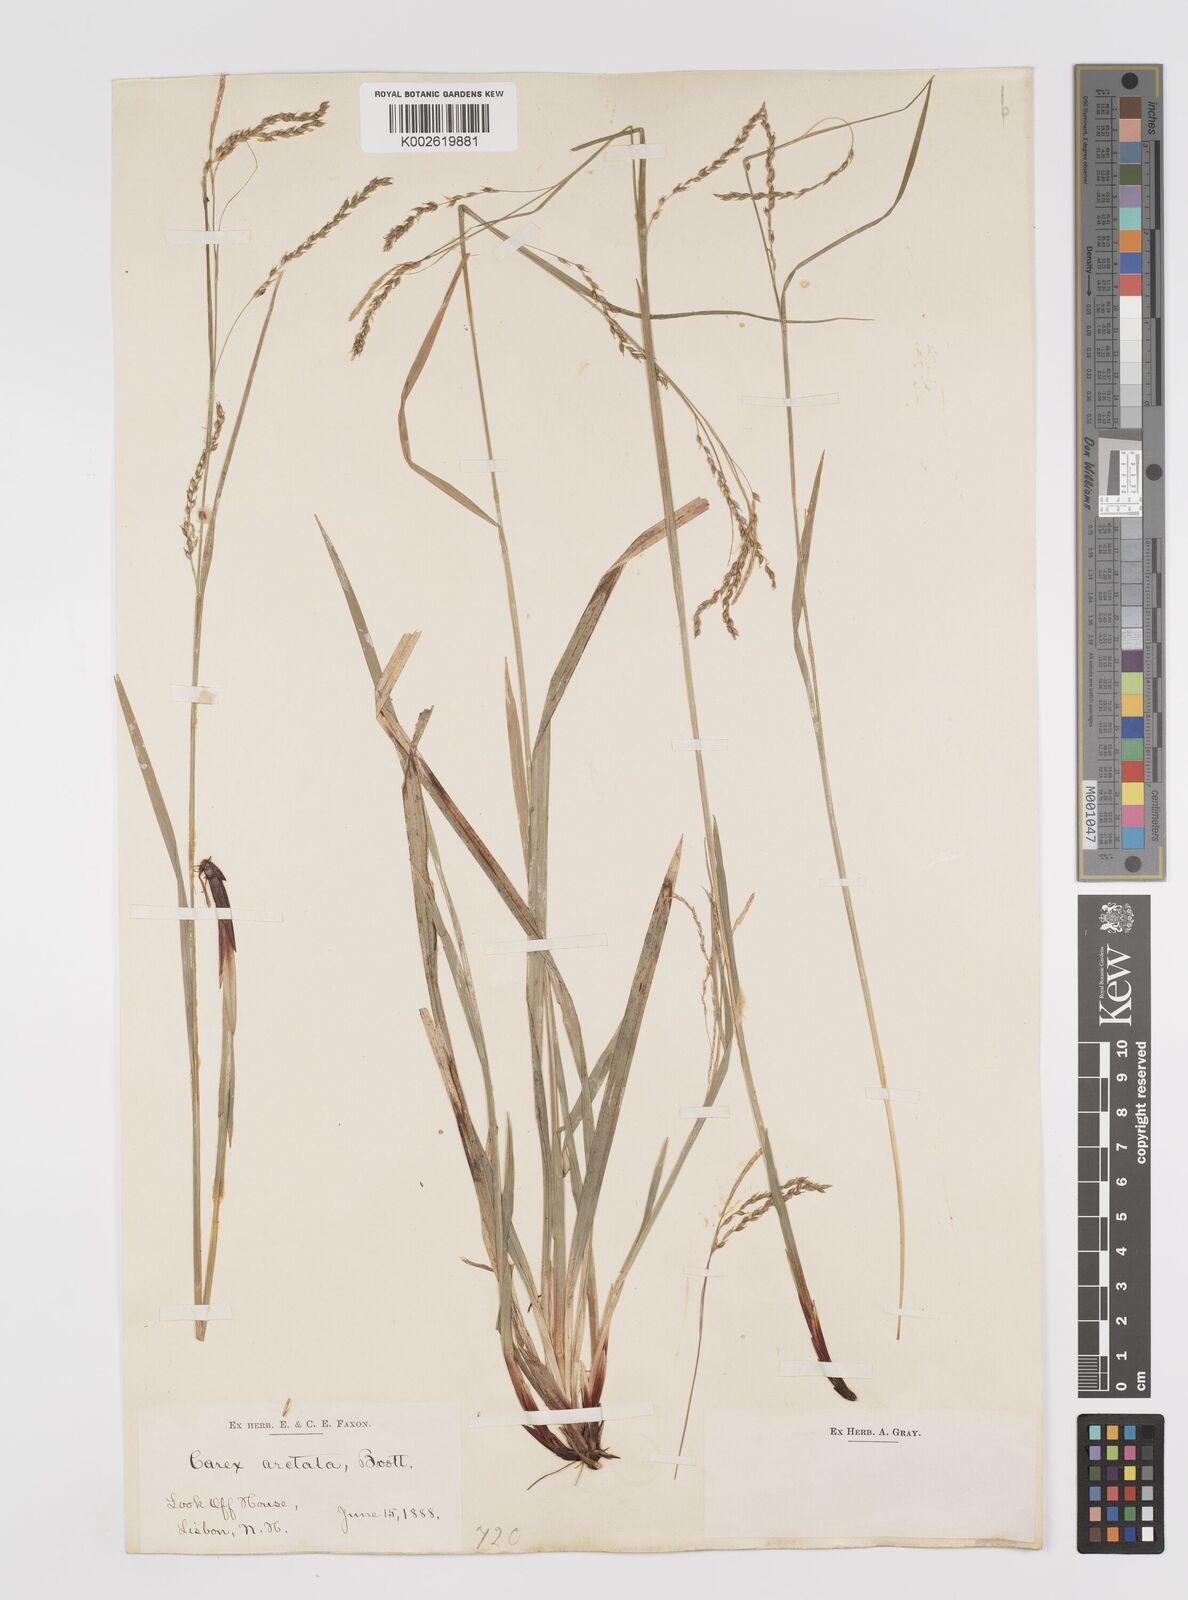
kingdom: Plantae
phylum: Tracheophyta
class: Liliopsida
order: Poales
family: Cyperaceae
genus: Carex
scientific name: Carex arctata
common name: Black sedge
